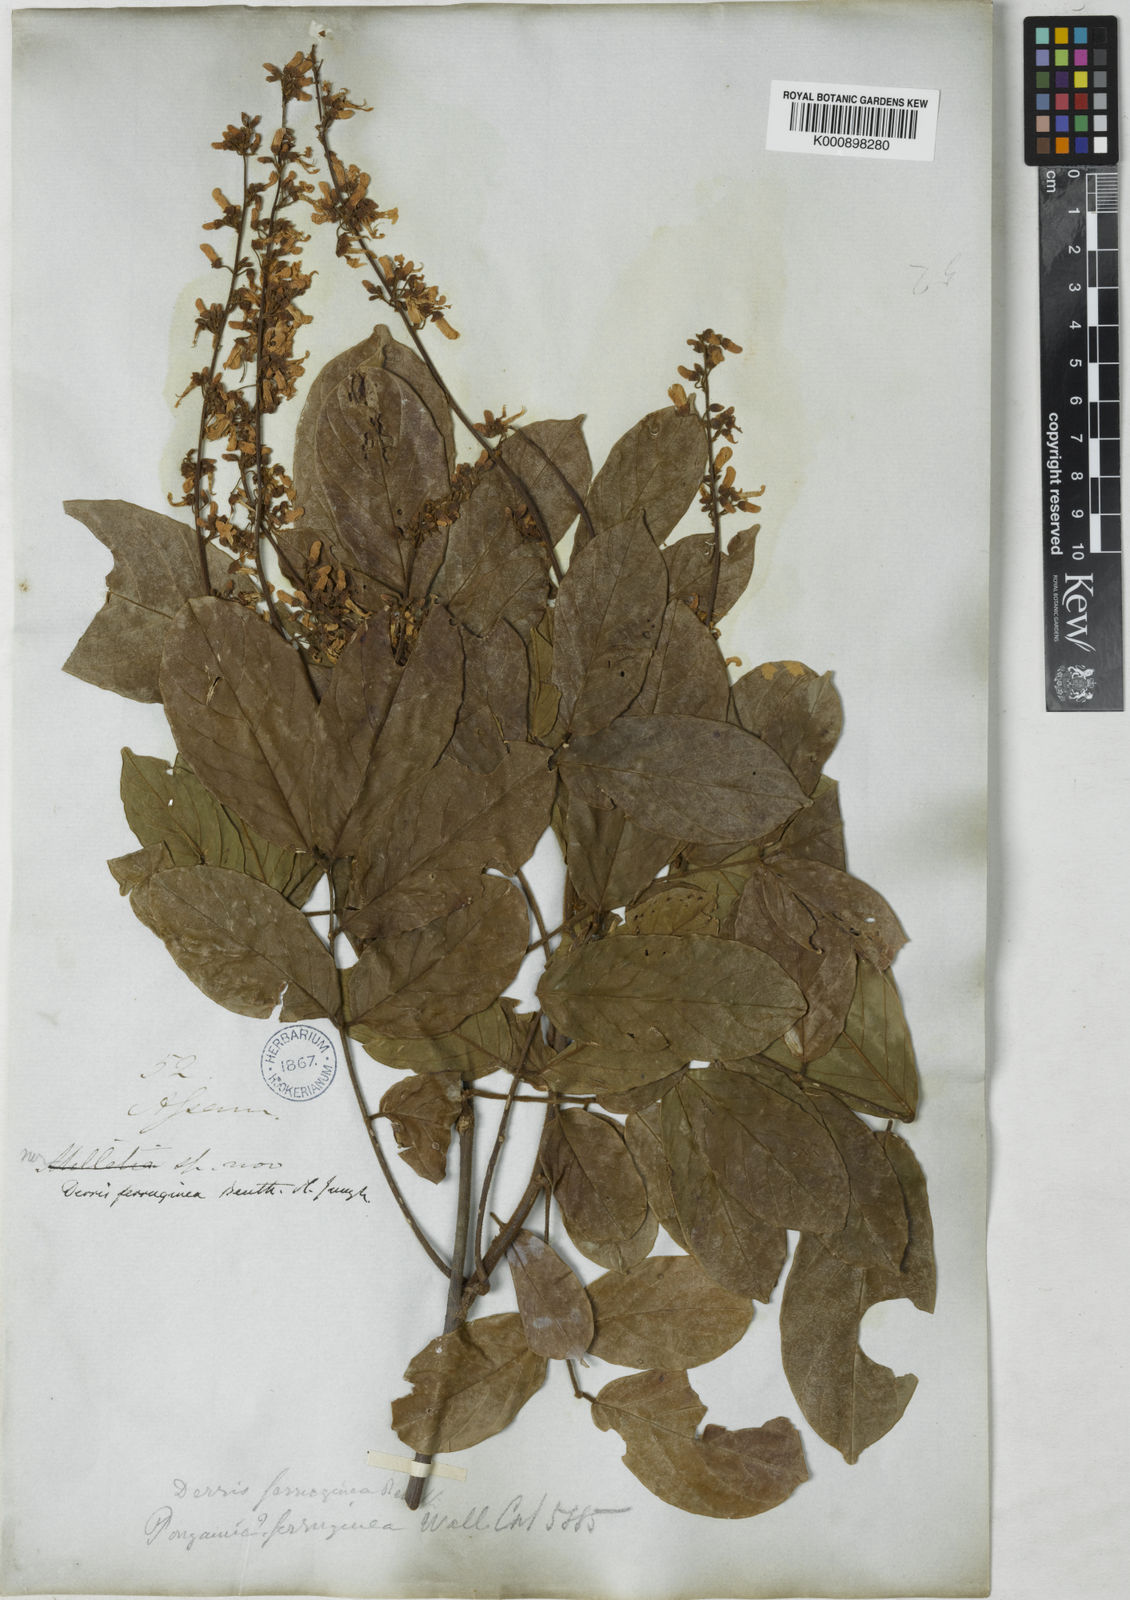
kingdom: Plantae
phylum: Tracheophyta
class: Magnoliopsida
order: Fabales
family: Fabaceae
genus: Derris
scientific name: Derris ferruginea
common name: Indian tubaroot
